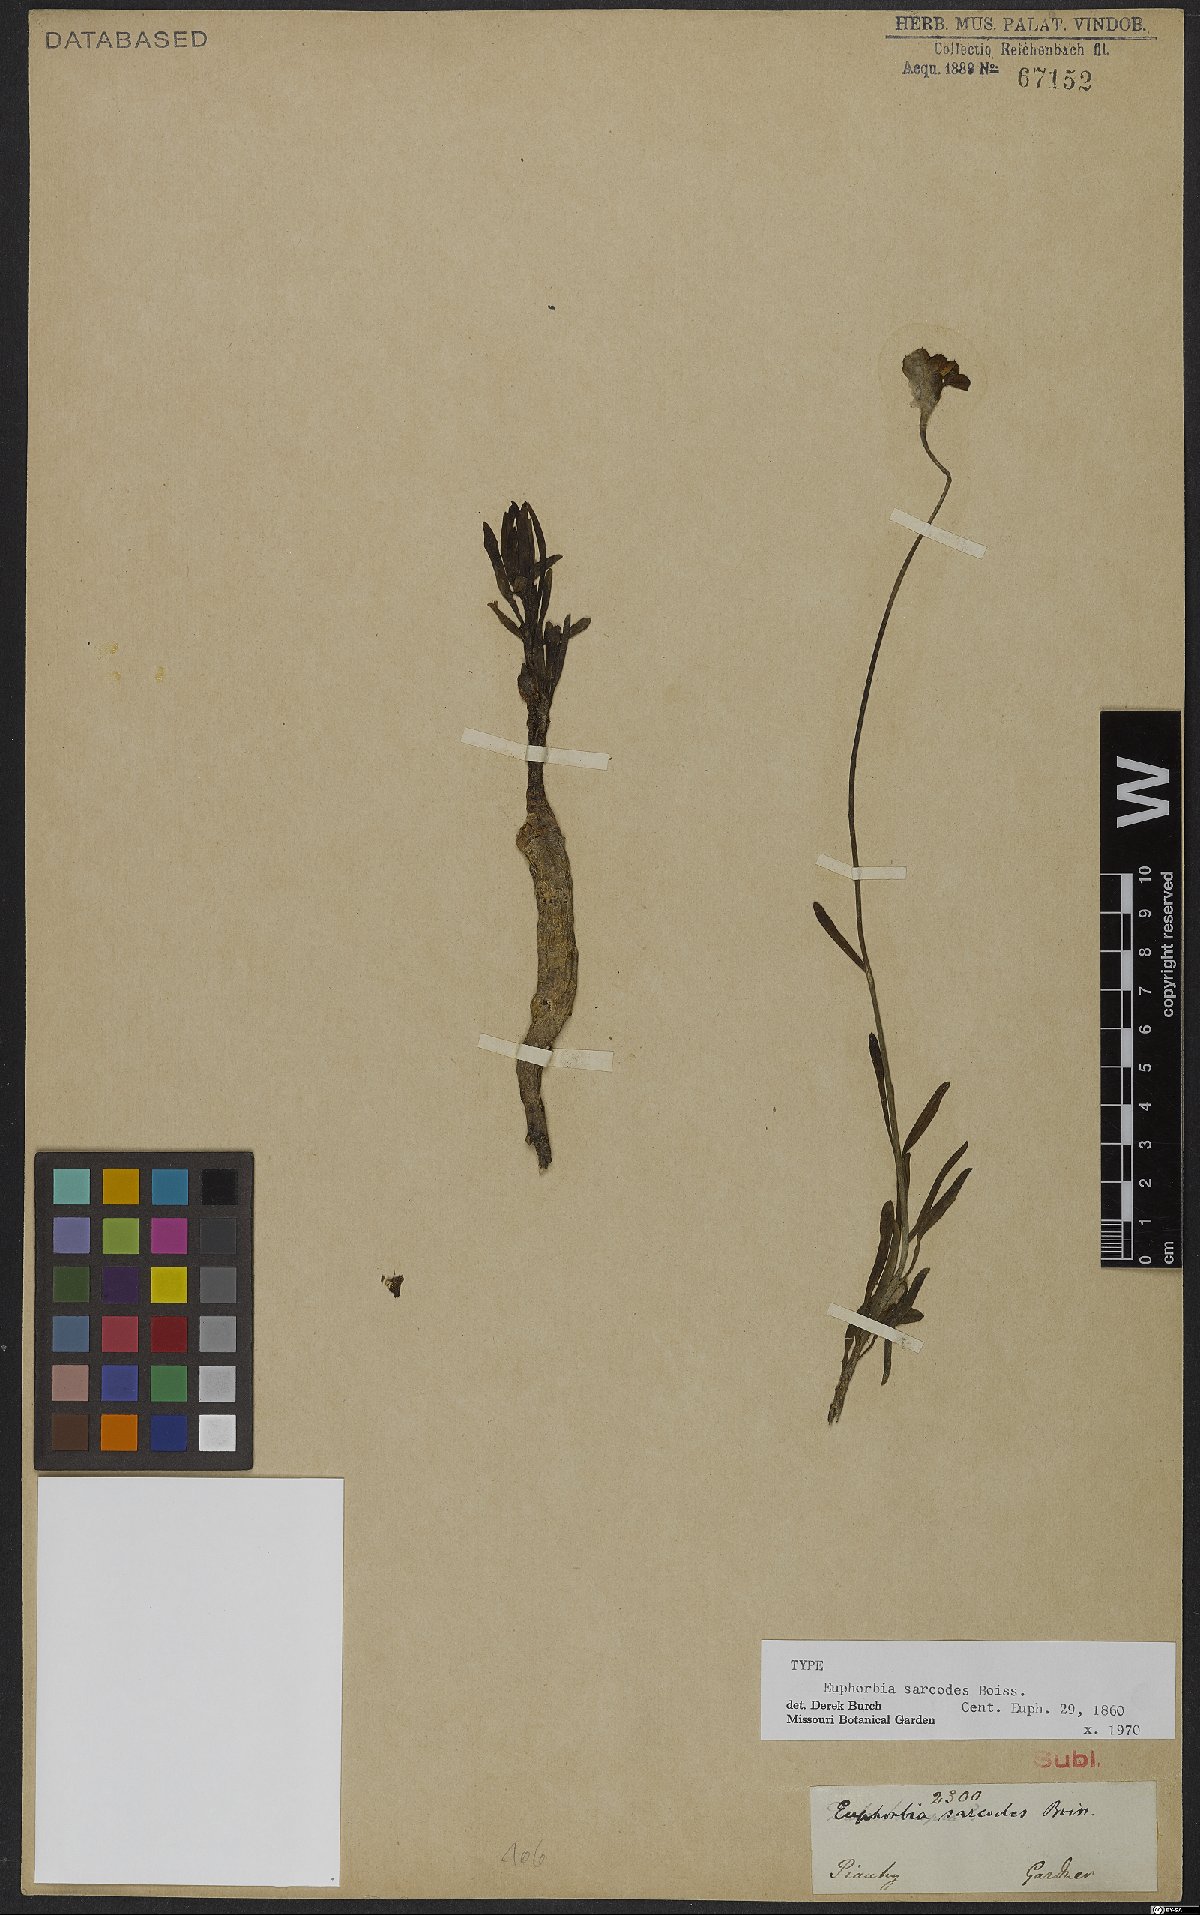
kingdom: Plantae
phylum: Tracheophyta
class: Magnoliopsida
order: Malpighiales
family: Euphorbiaceae
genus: Euphorbia
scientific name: Euphorbia sarcodes
